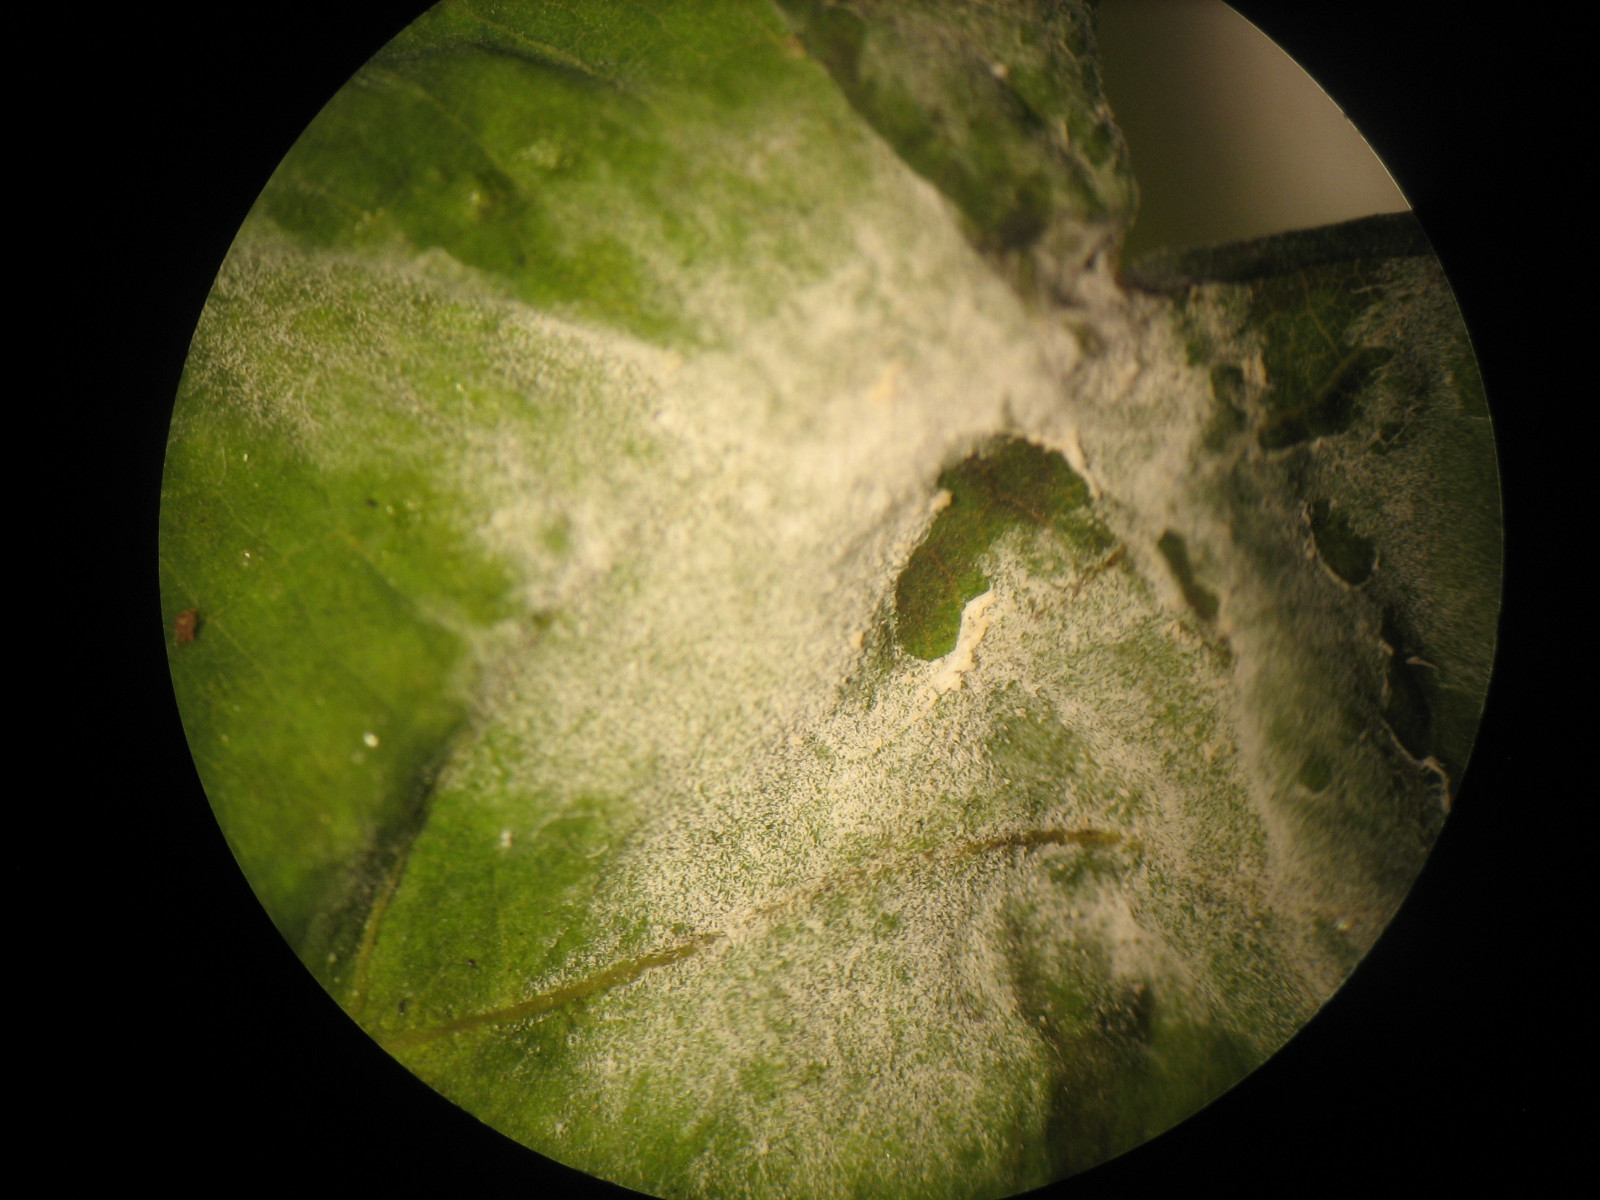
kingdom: Fungi
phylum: Ascomycota
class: Leotiomycetes
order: Helotiales
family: Erysiphaceae
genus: Erysiphe
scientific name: Erysiphe alphitoides
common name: ege-meldug
